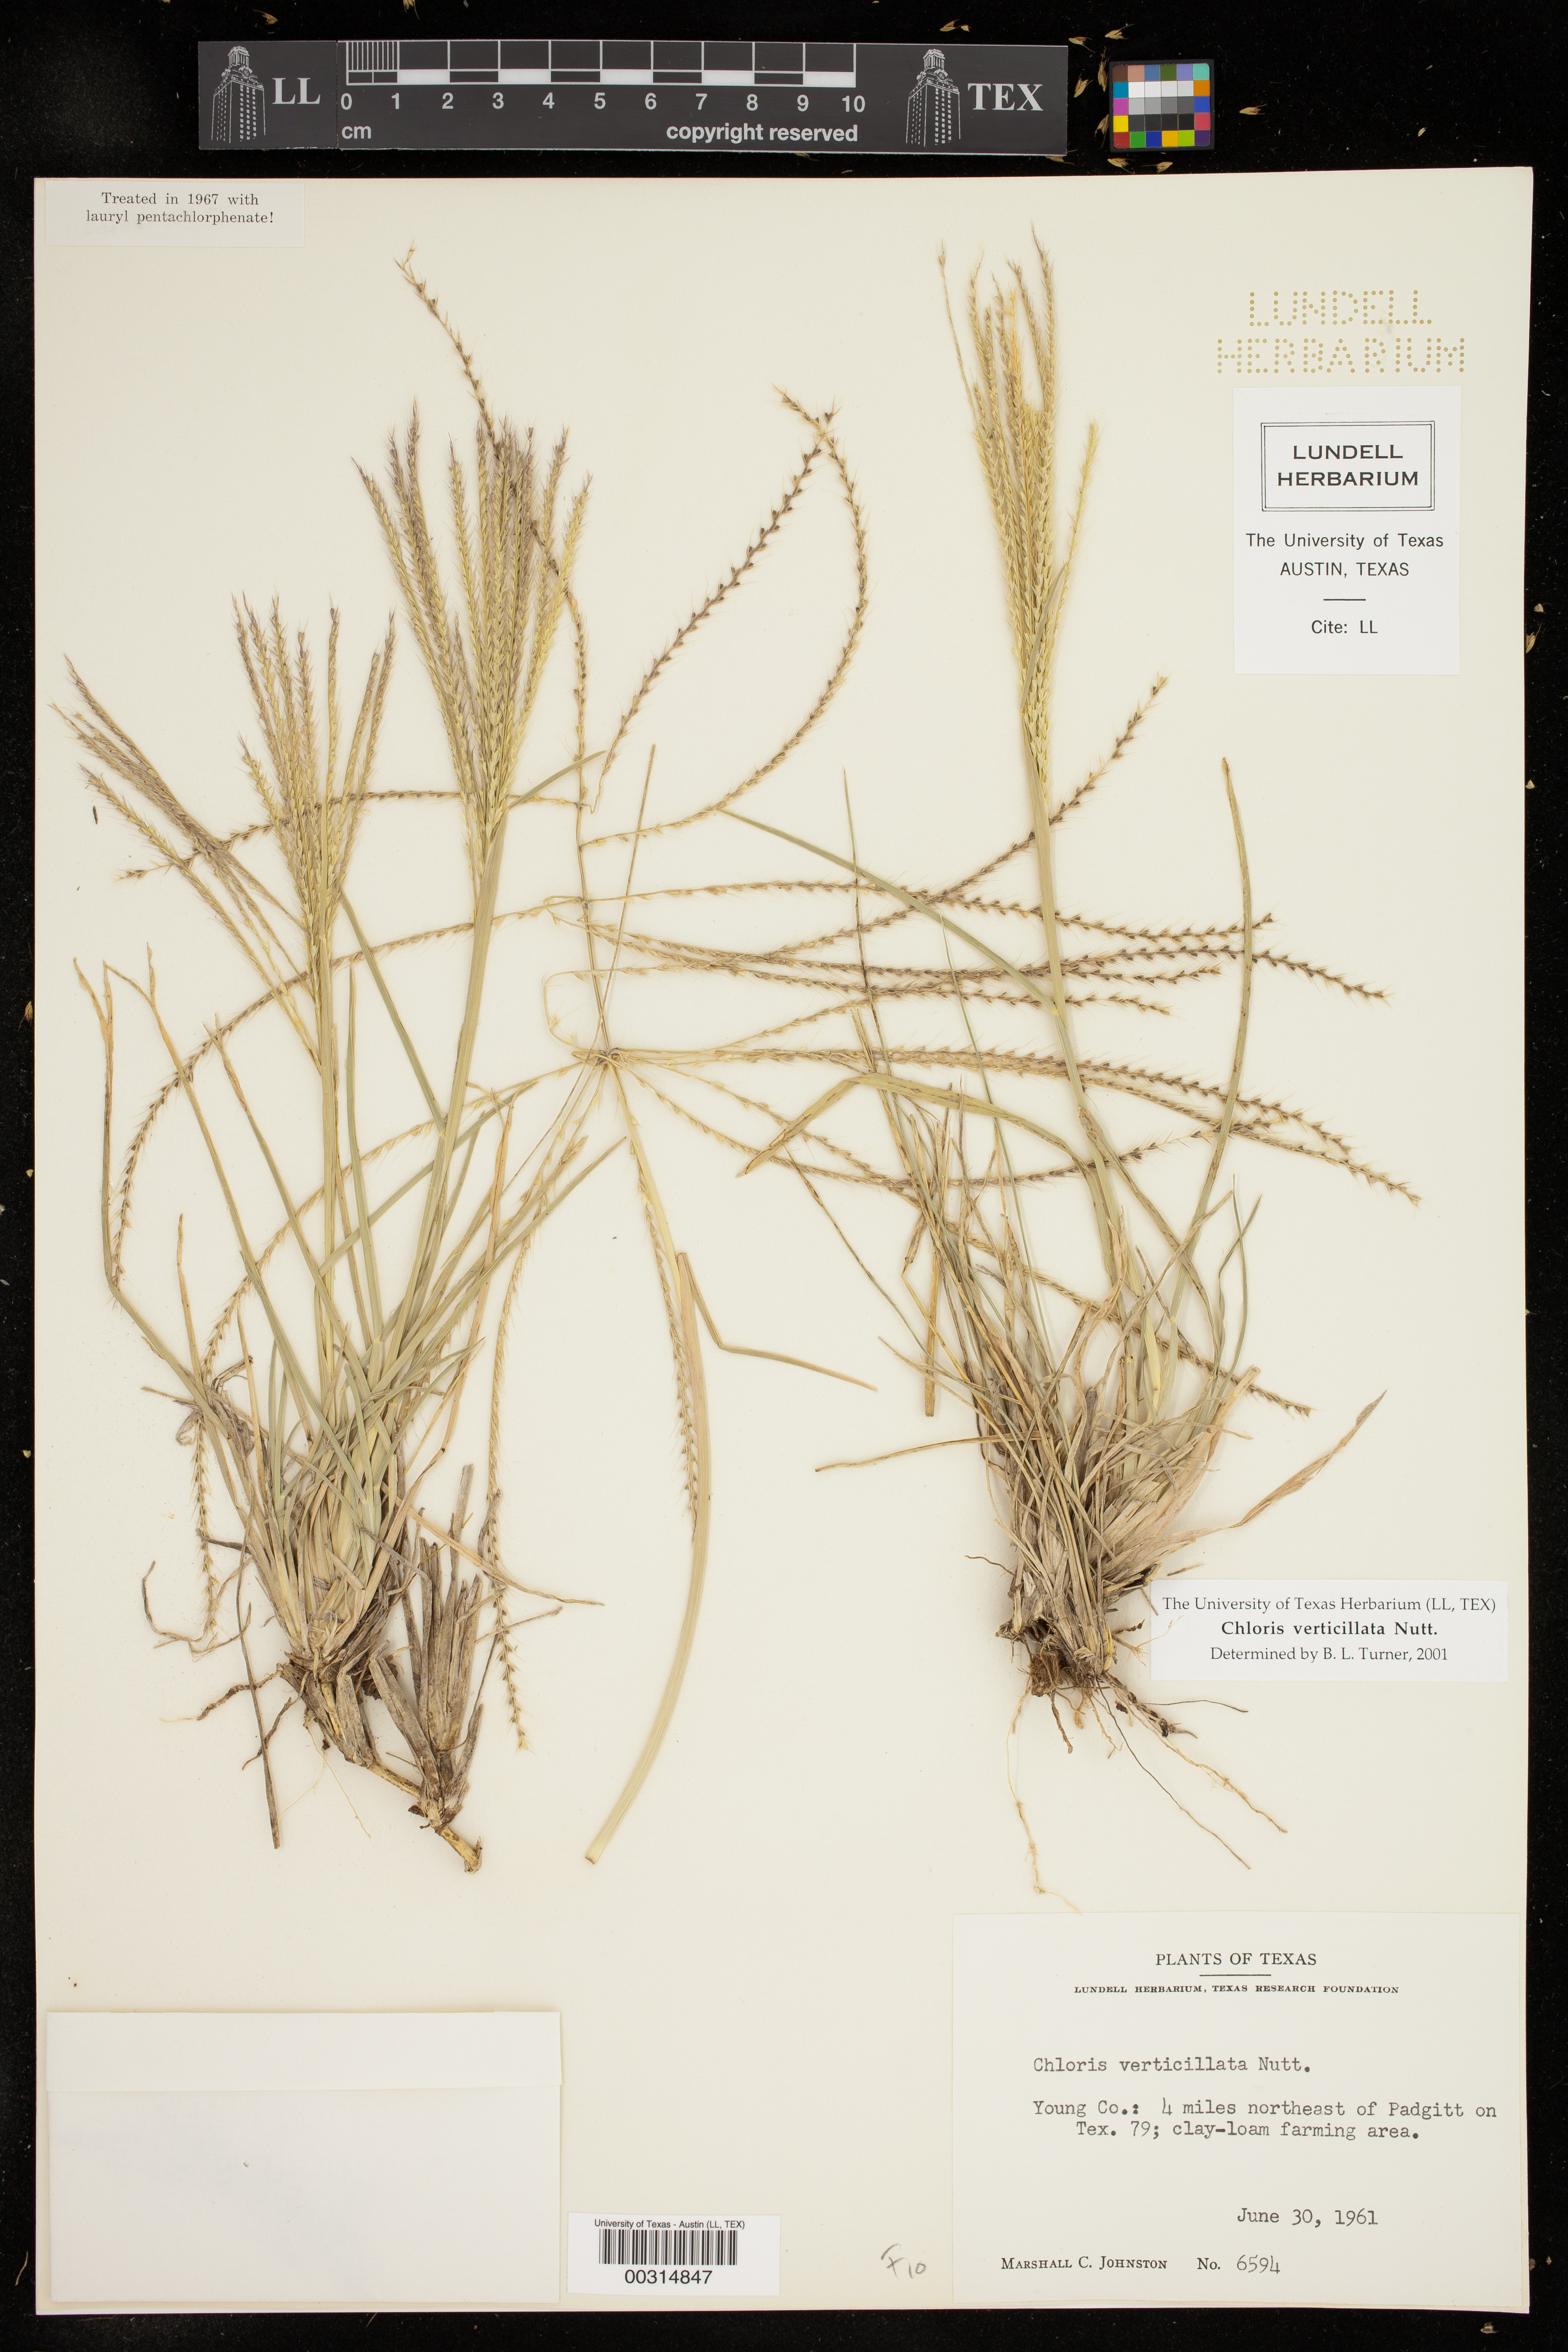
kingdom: Plantae
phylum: Tracheophyta
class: Liliopsida
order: Poales
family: Poaceae
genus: Chloris
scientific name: Chloris verticillata
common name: Tumble windmill grass
